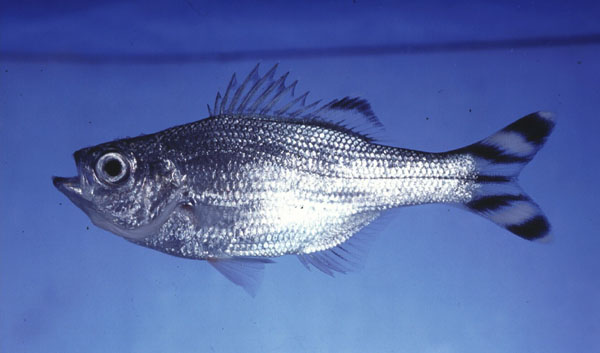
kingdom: Animalia
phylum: Chordata
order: Perciformes
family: Kuhliidae
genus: Kuhlia
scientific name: Kuhlia mugil
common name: Barred flagtail
